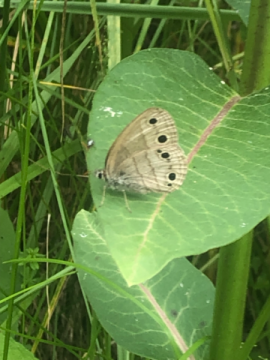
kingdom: Animalia
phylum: Arthropoda
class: Insecta
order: Lepidoptera
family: Nymphalidae
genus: Euptychia
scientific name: Euptychia cymela
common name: Little Wood Satyr
